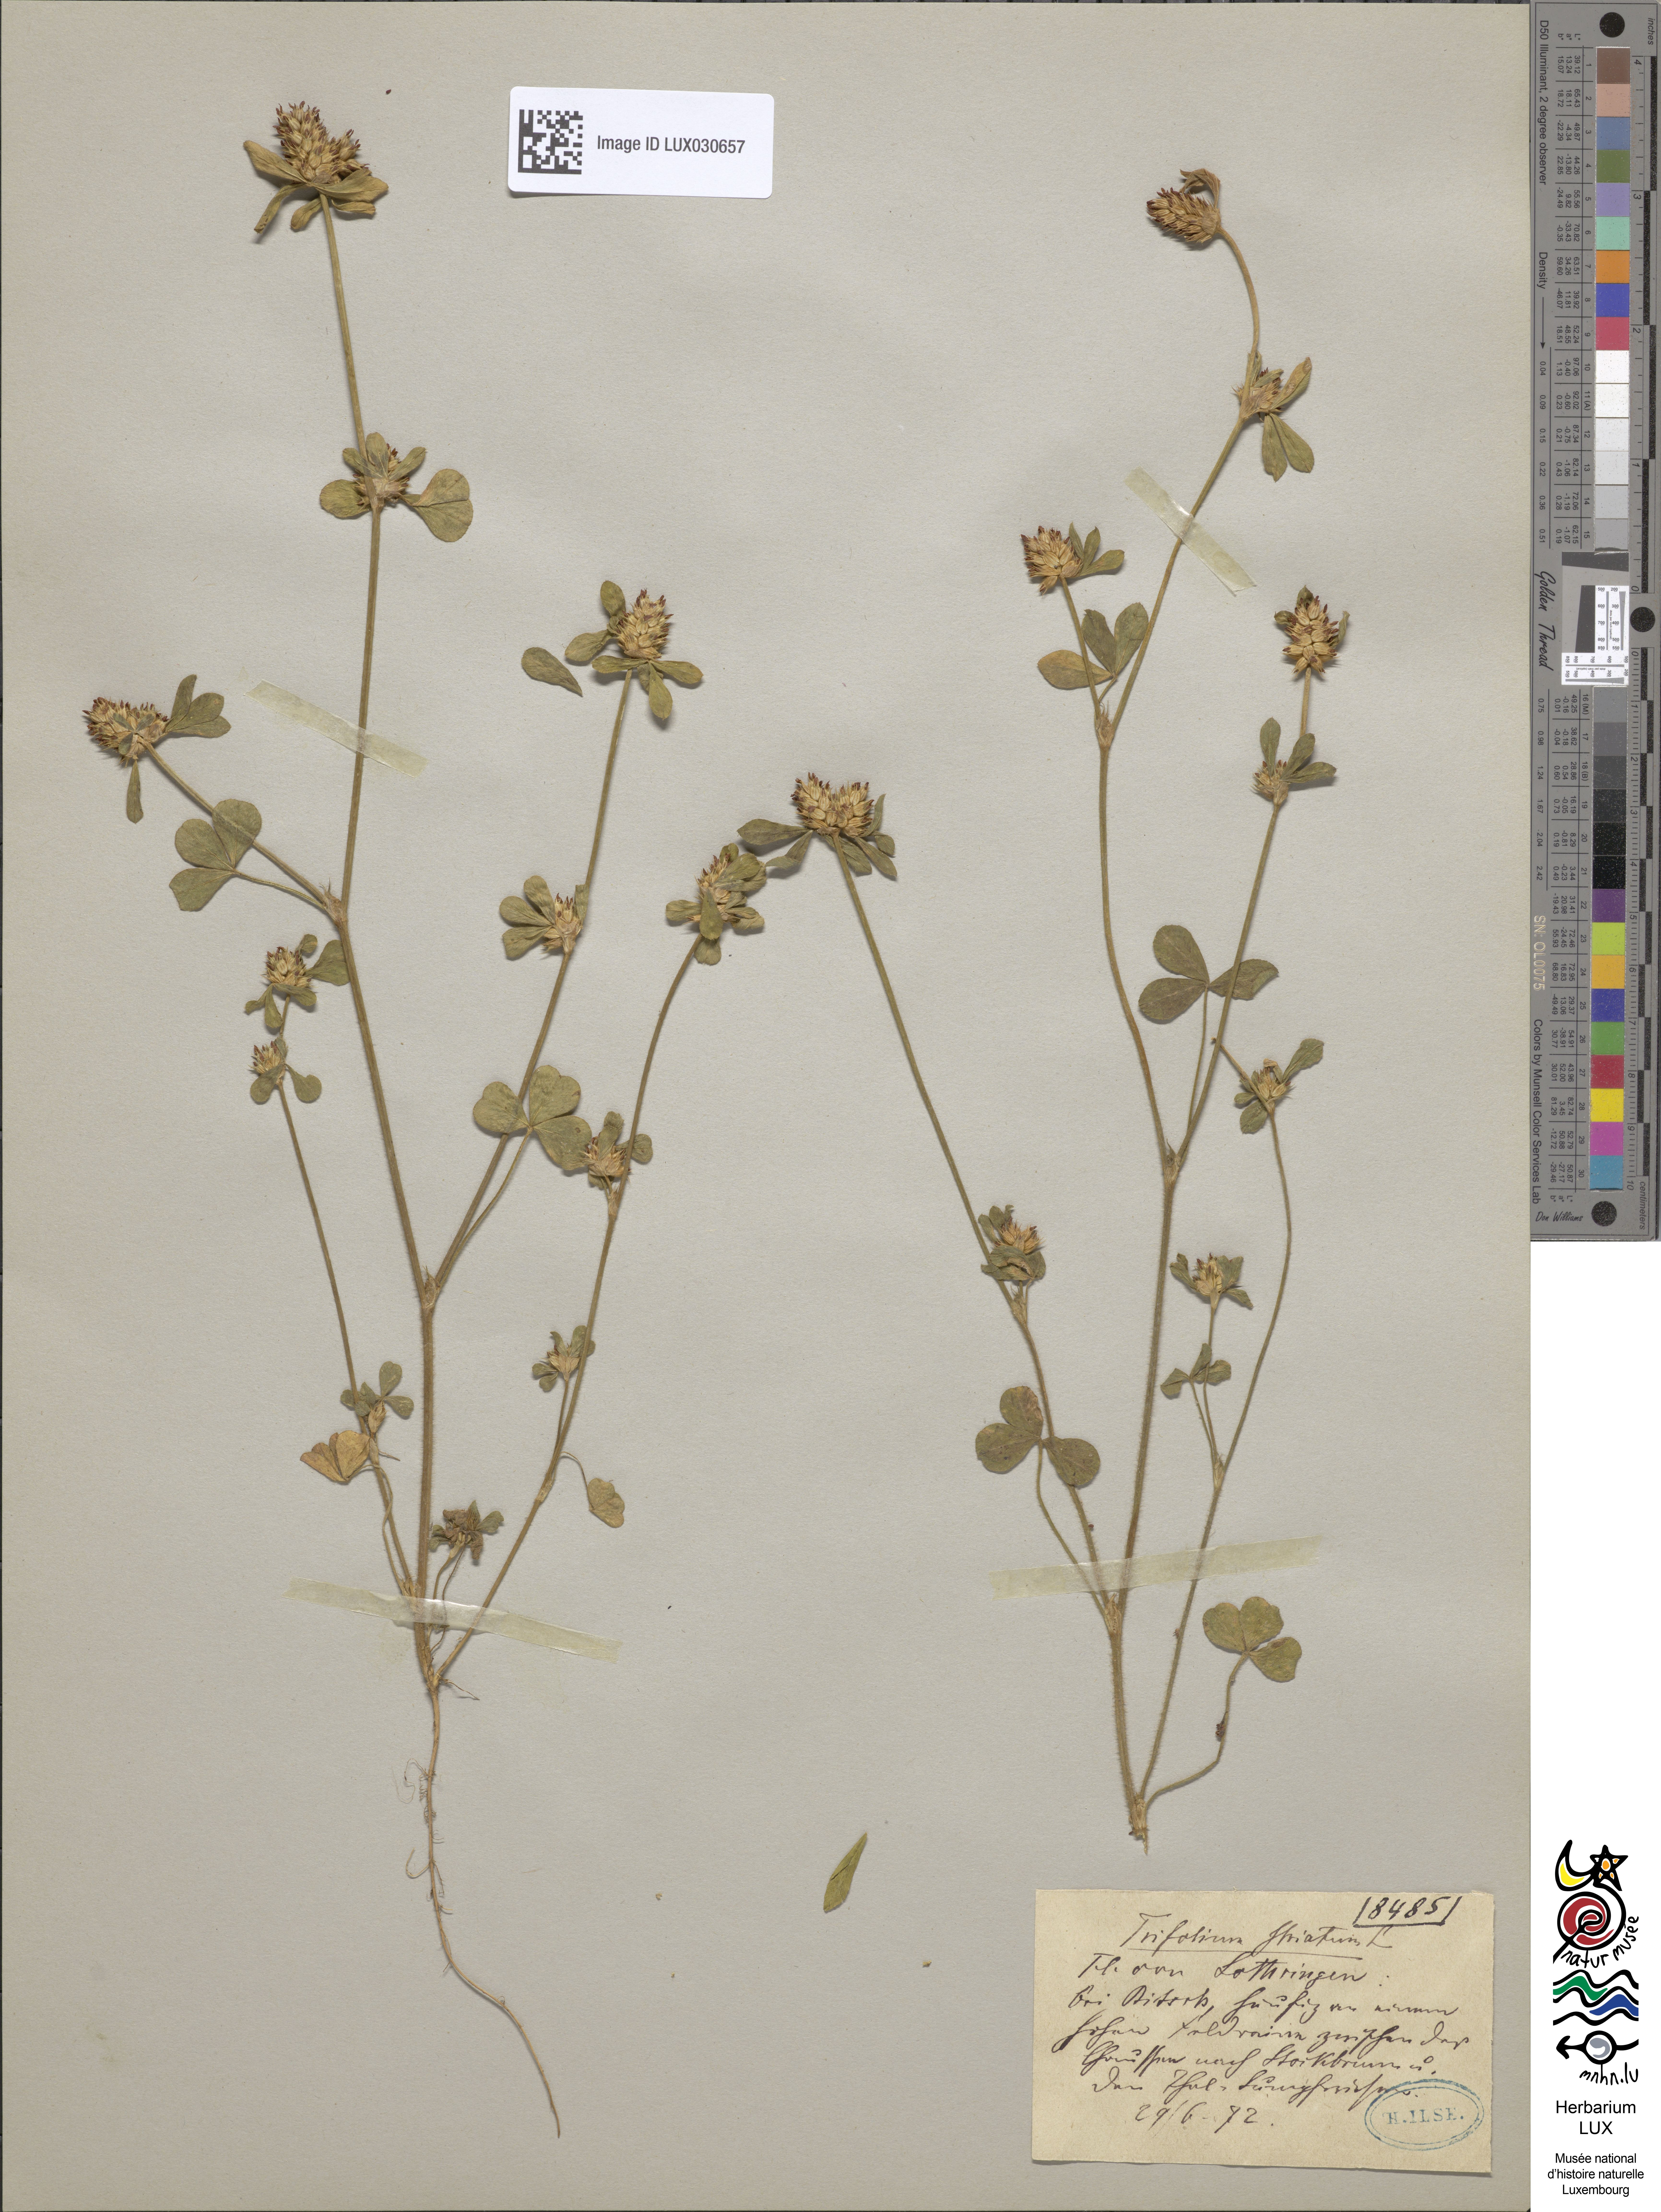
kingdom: Plantae
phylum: Tracheophyta
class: Magnoliopsida
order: Fabales
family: Fabaceae
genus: Trifolium
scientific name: Trifolium striatum
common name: Knotted clover
